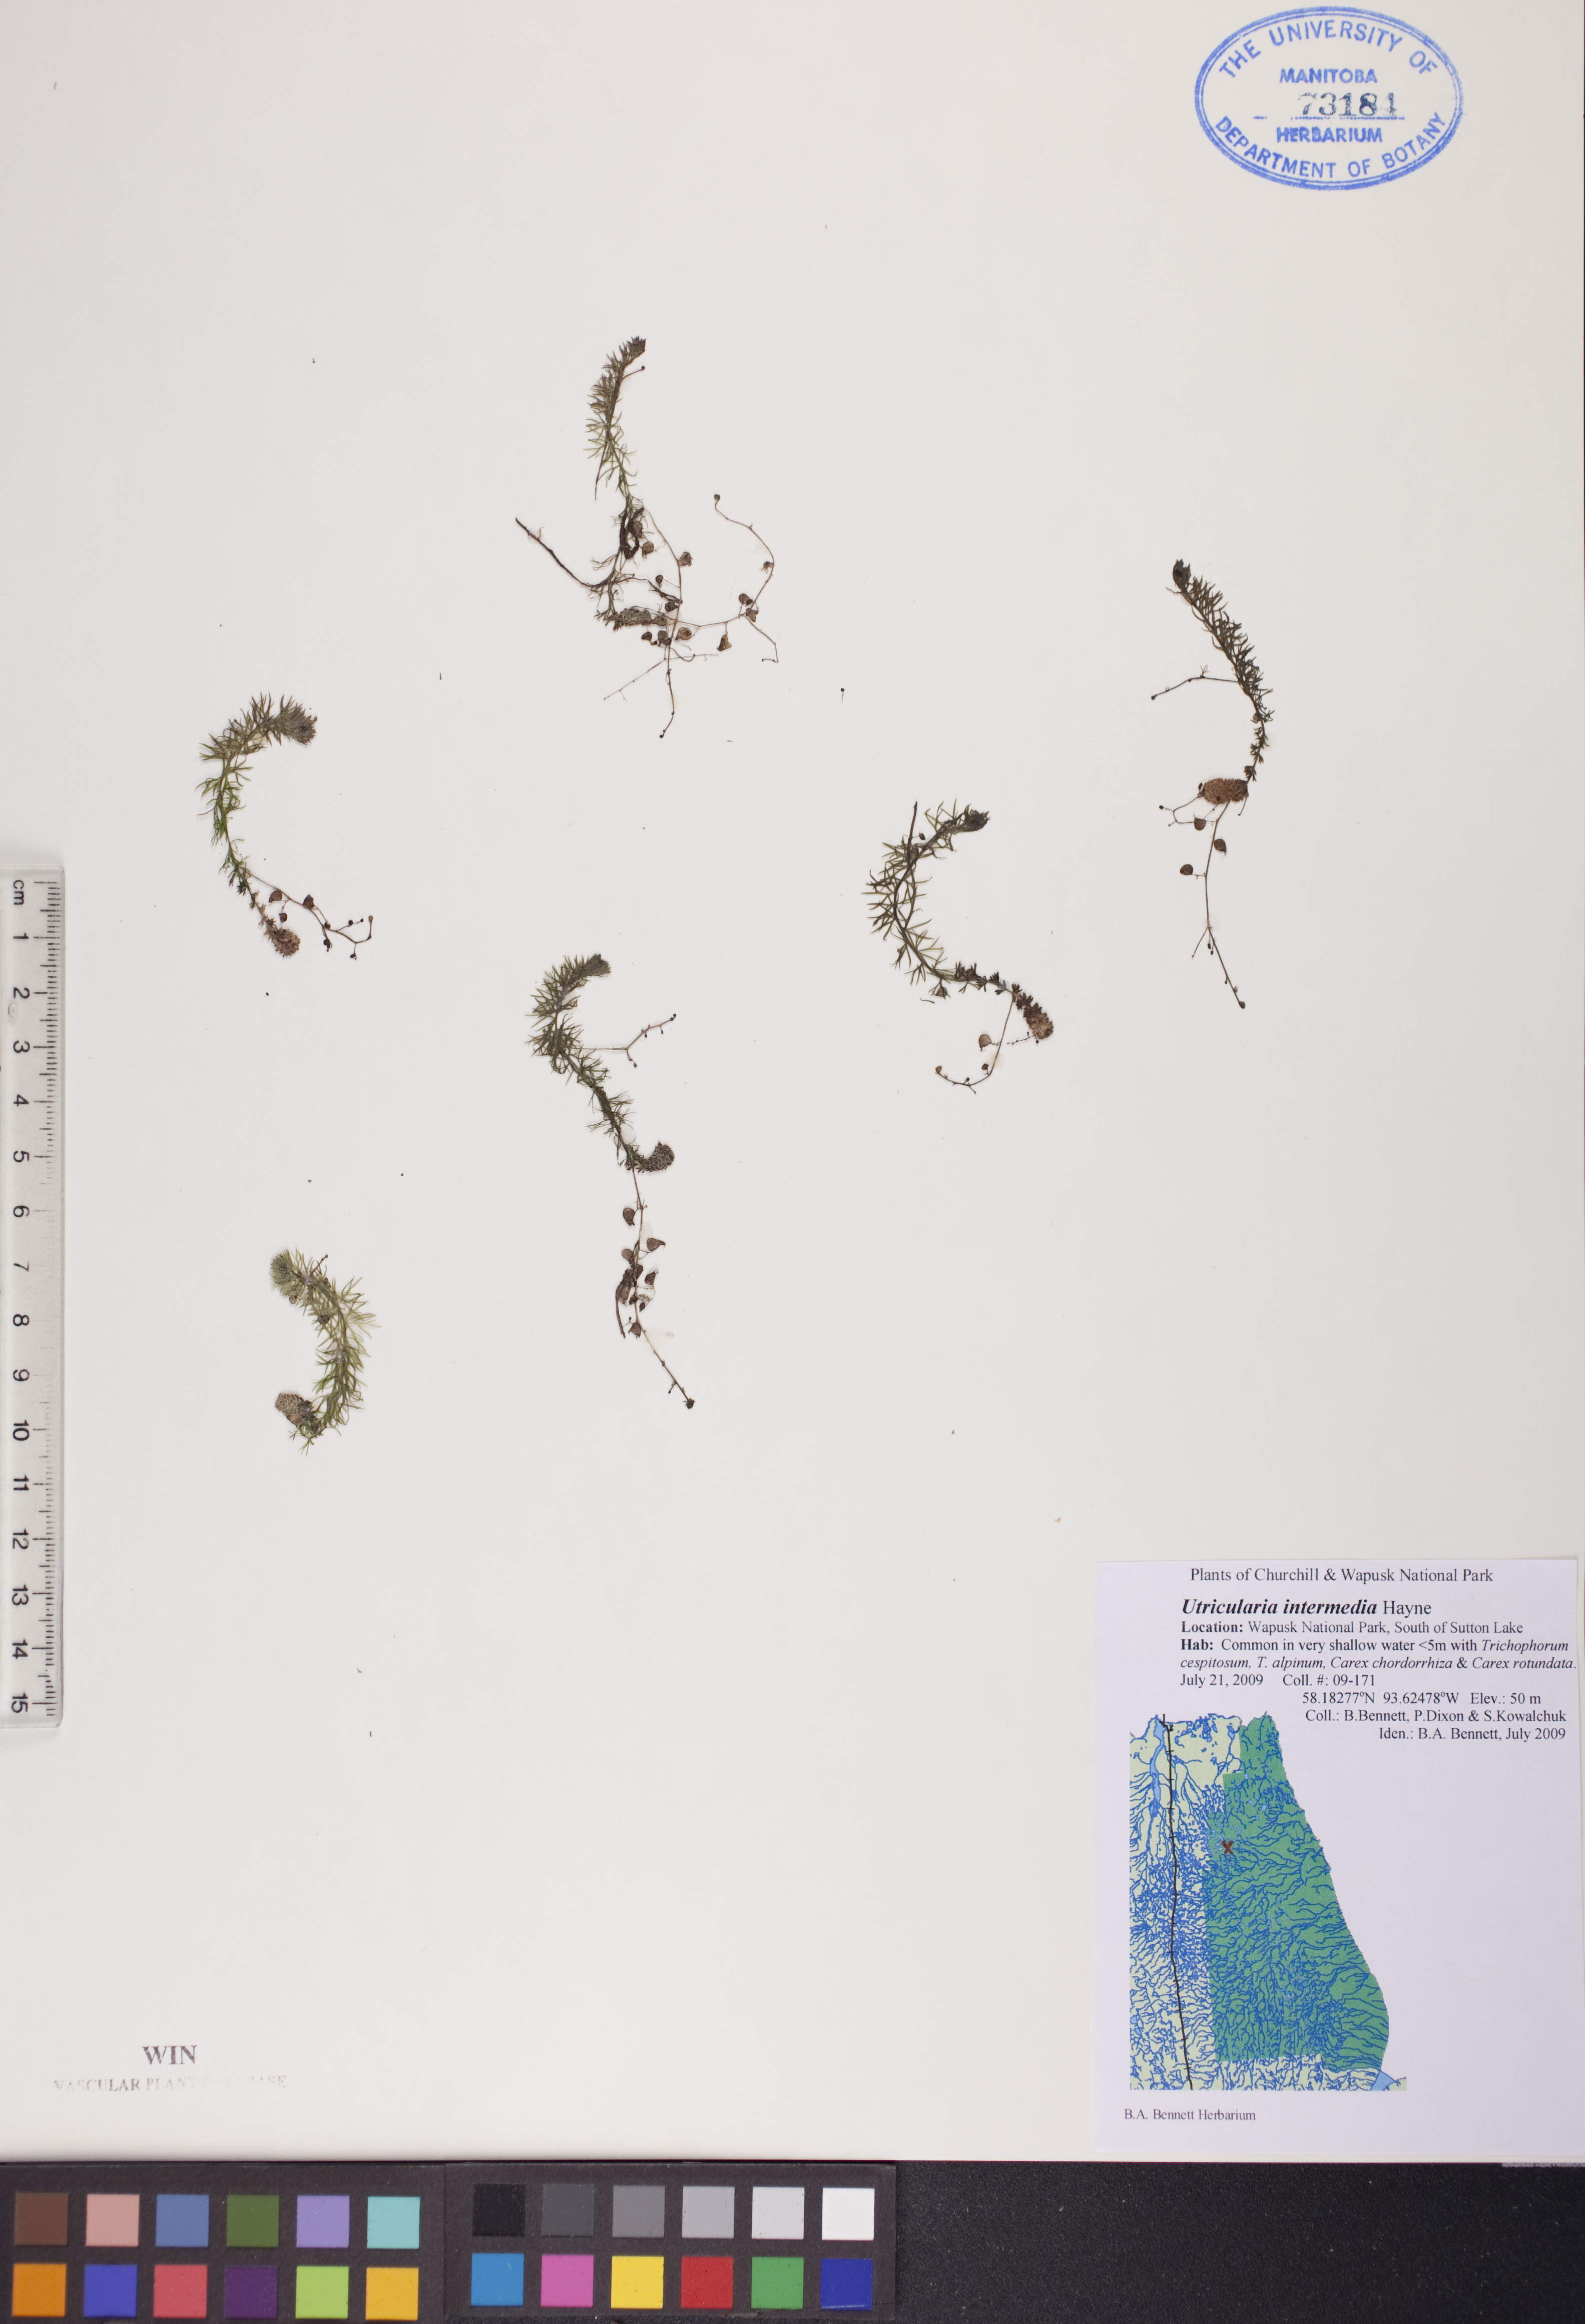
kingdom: Plantae
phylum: Tracheophyta
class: Magnoliopsida
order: Lamiales
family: Lentibulariaceae
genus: Utricularia
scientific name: Utricularia intermedia
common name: Intermediate bladderwort
